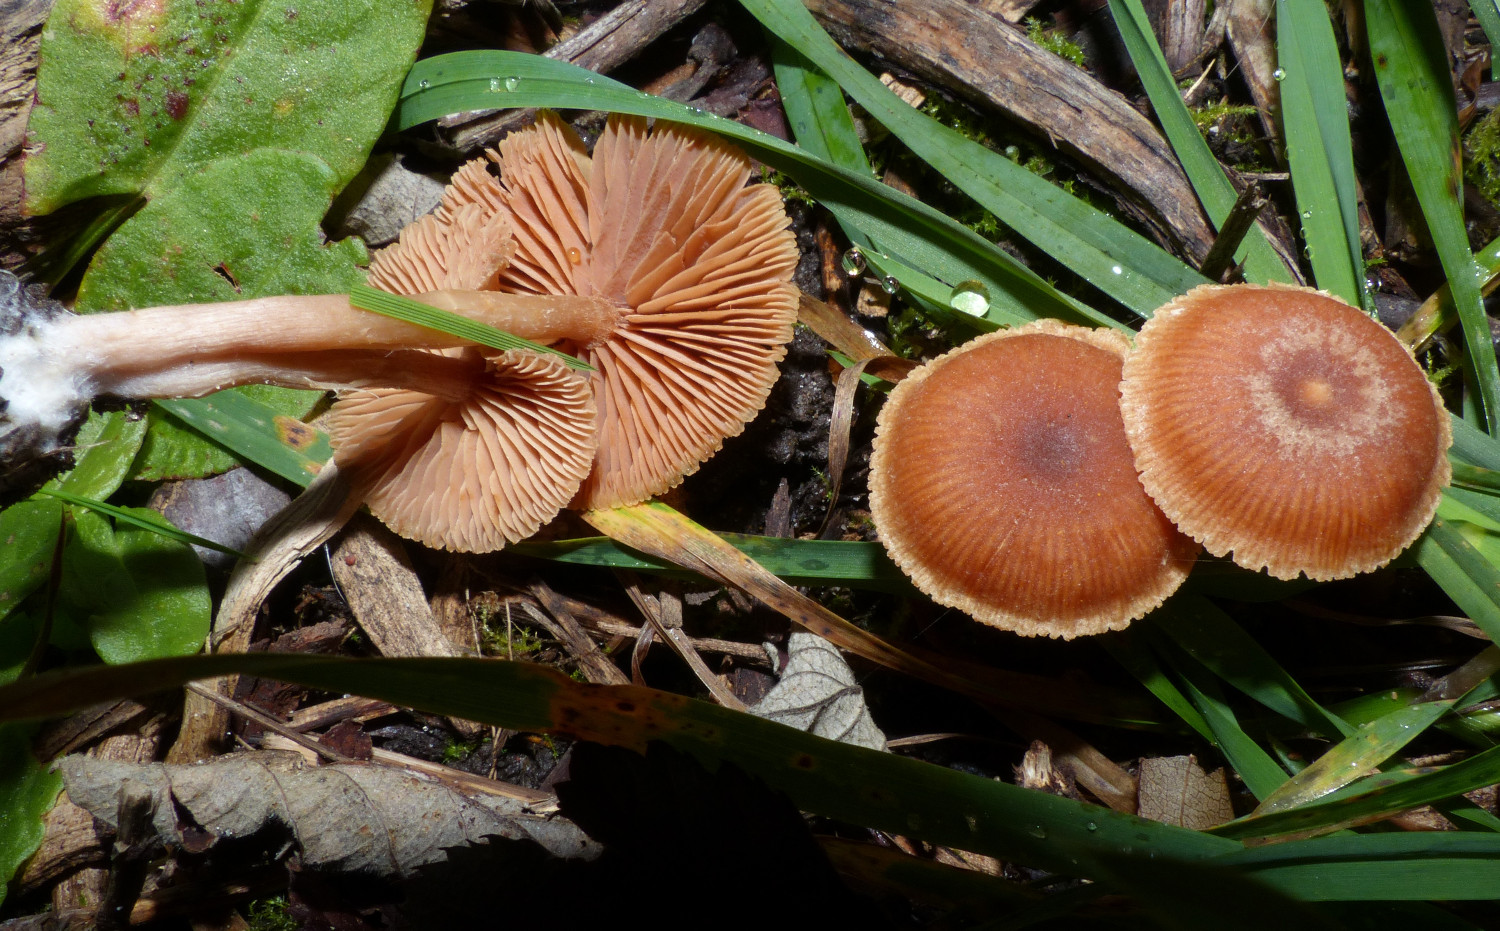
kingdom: Fungi
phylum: Basidiomycota
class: Agaricomycetes
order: Agaricales
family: Tubariaceae
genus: Tubaria
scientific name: Tubaria furfuracea
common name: kliddet fnughat
